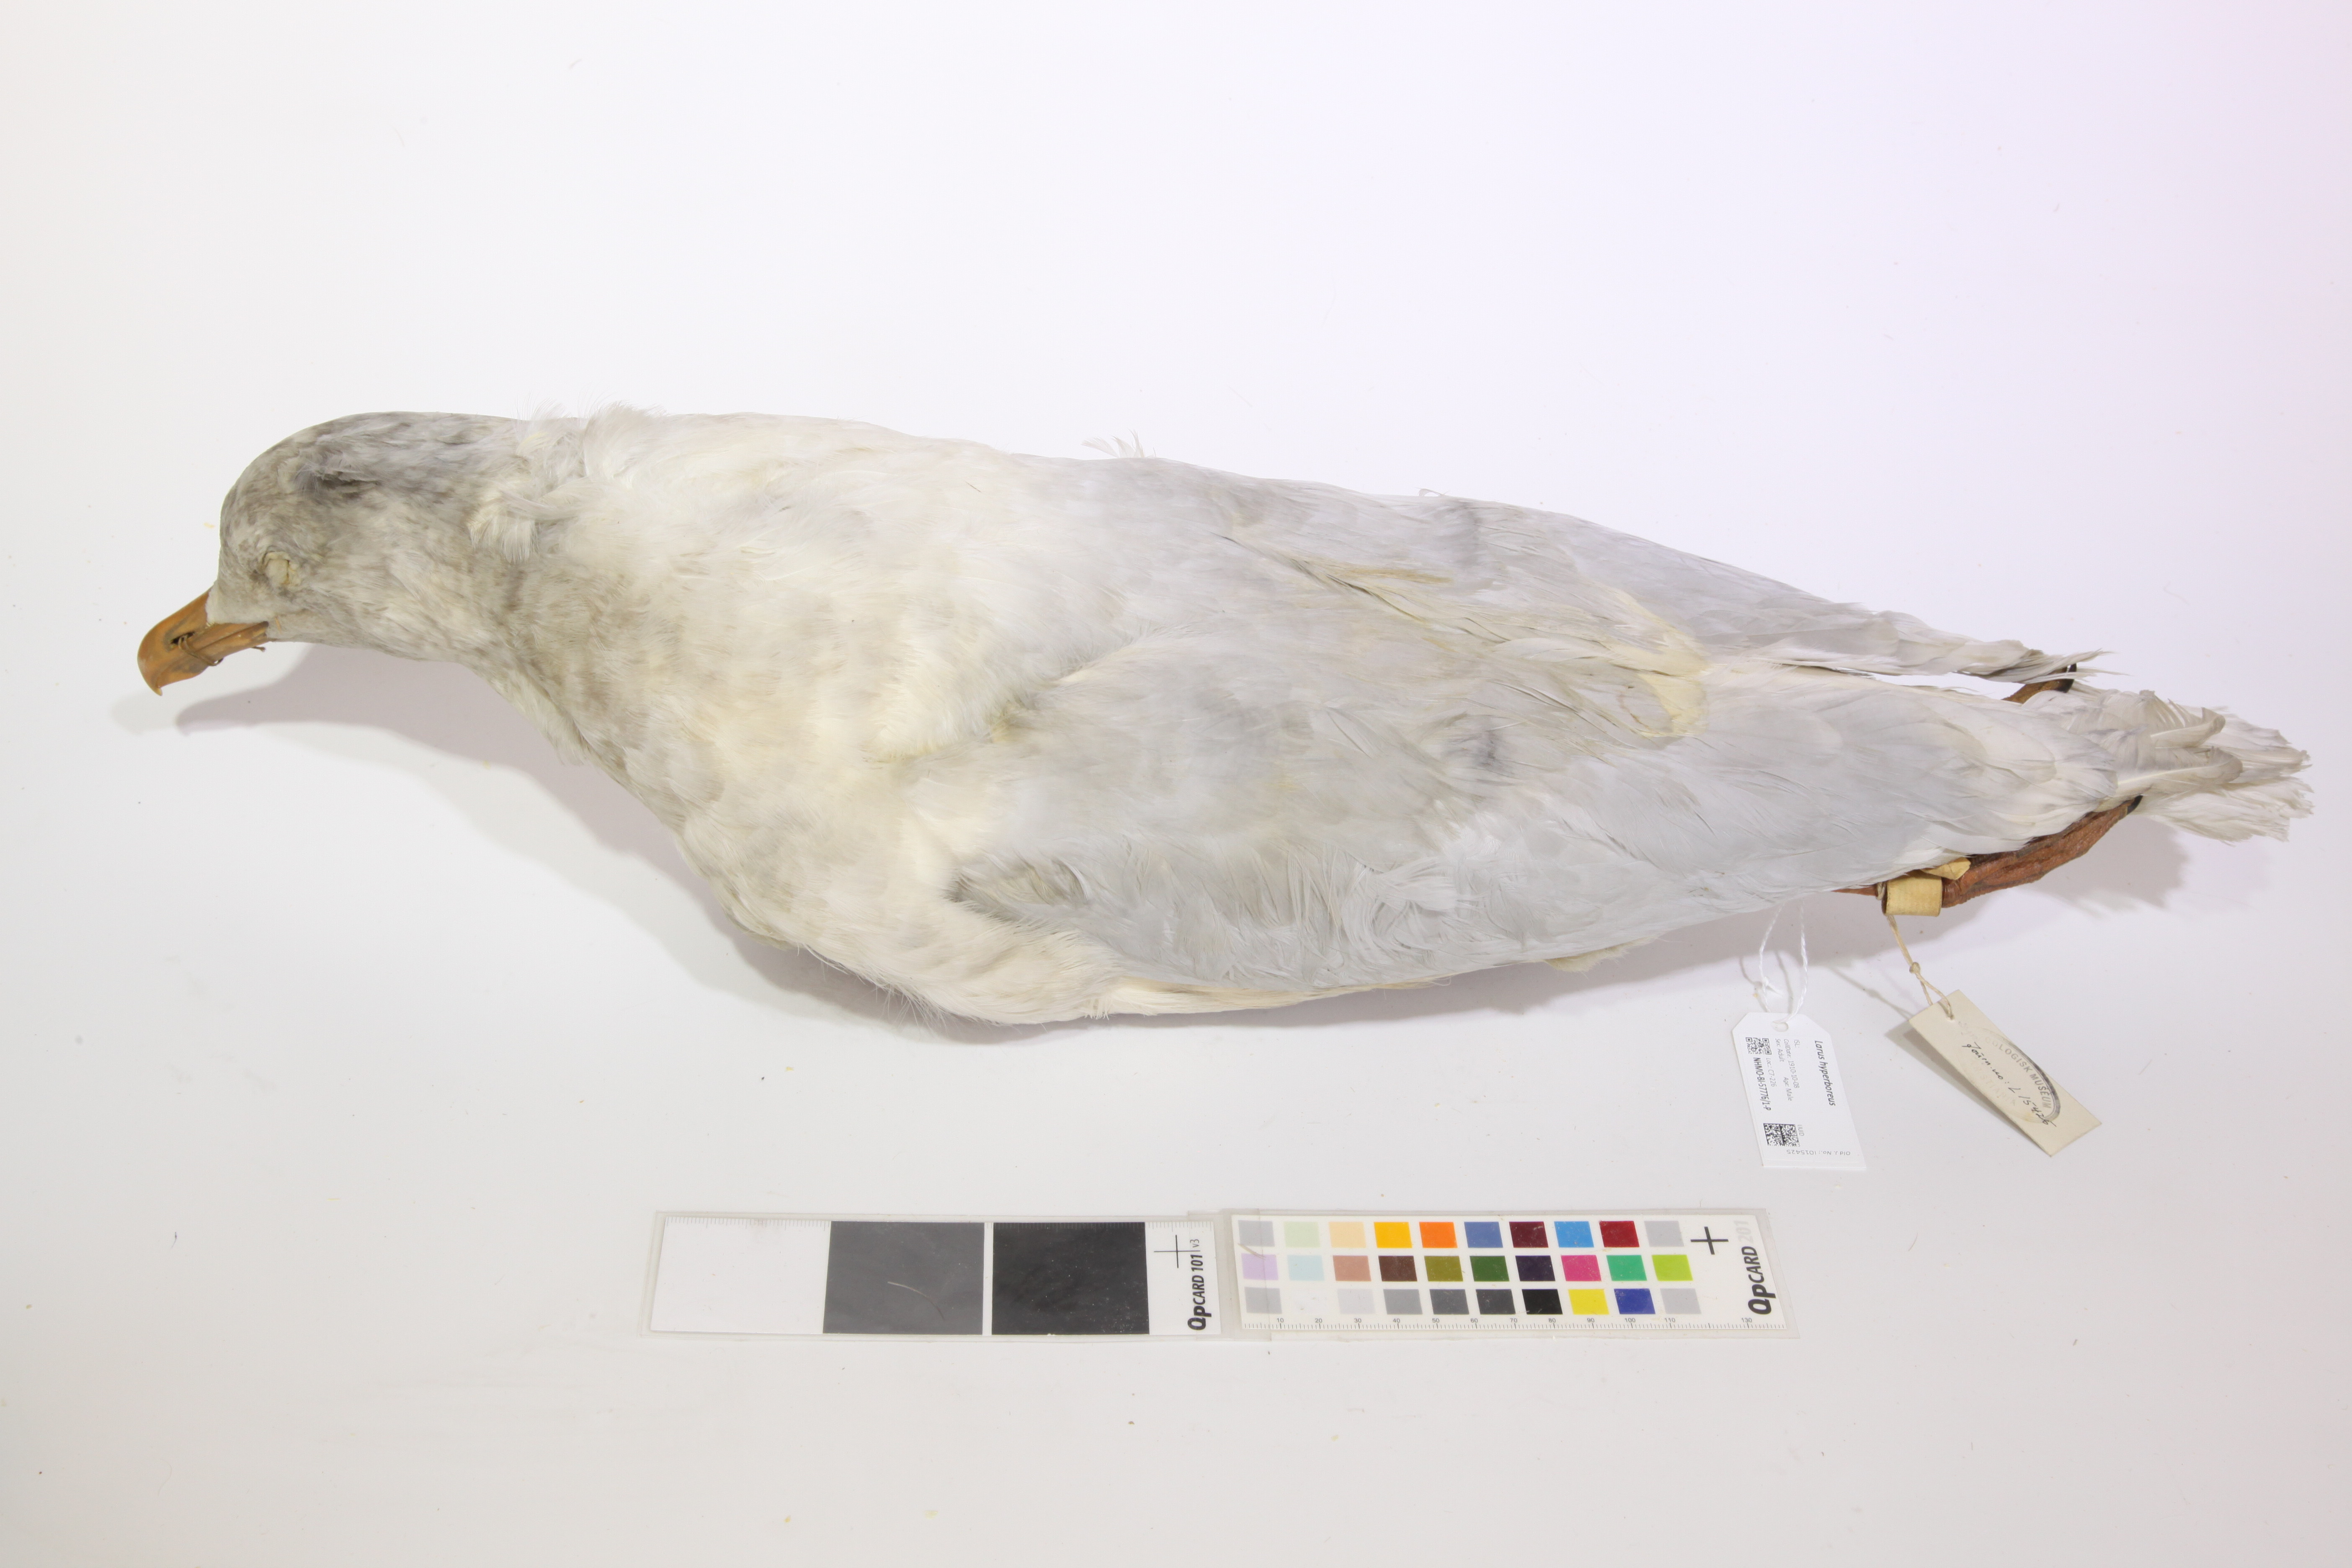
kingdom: Animalia
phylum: Chordata
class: Aves
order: Charadriiformes
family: Laridae
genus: Larus
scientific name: Larus hyperboreus
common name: Glaucous gull
